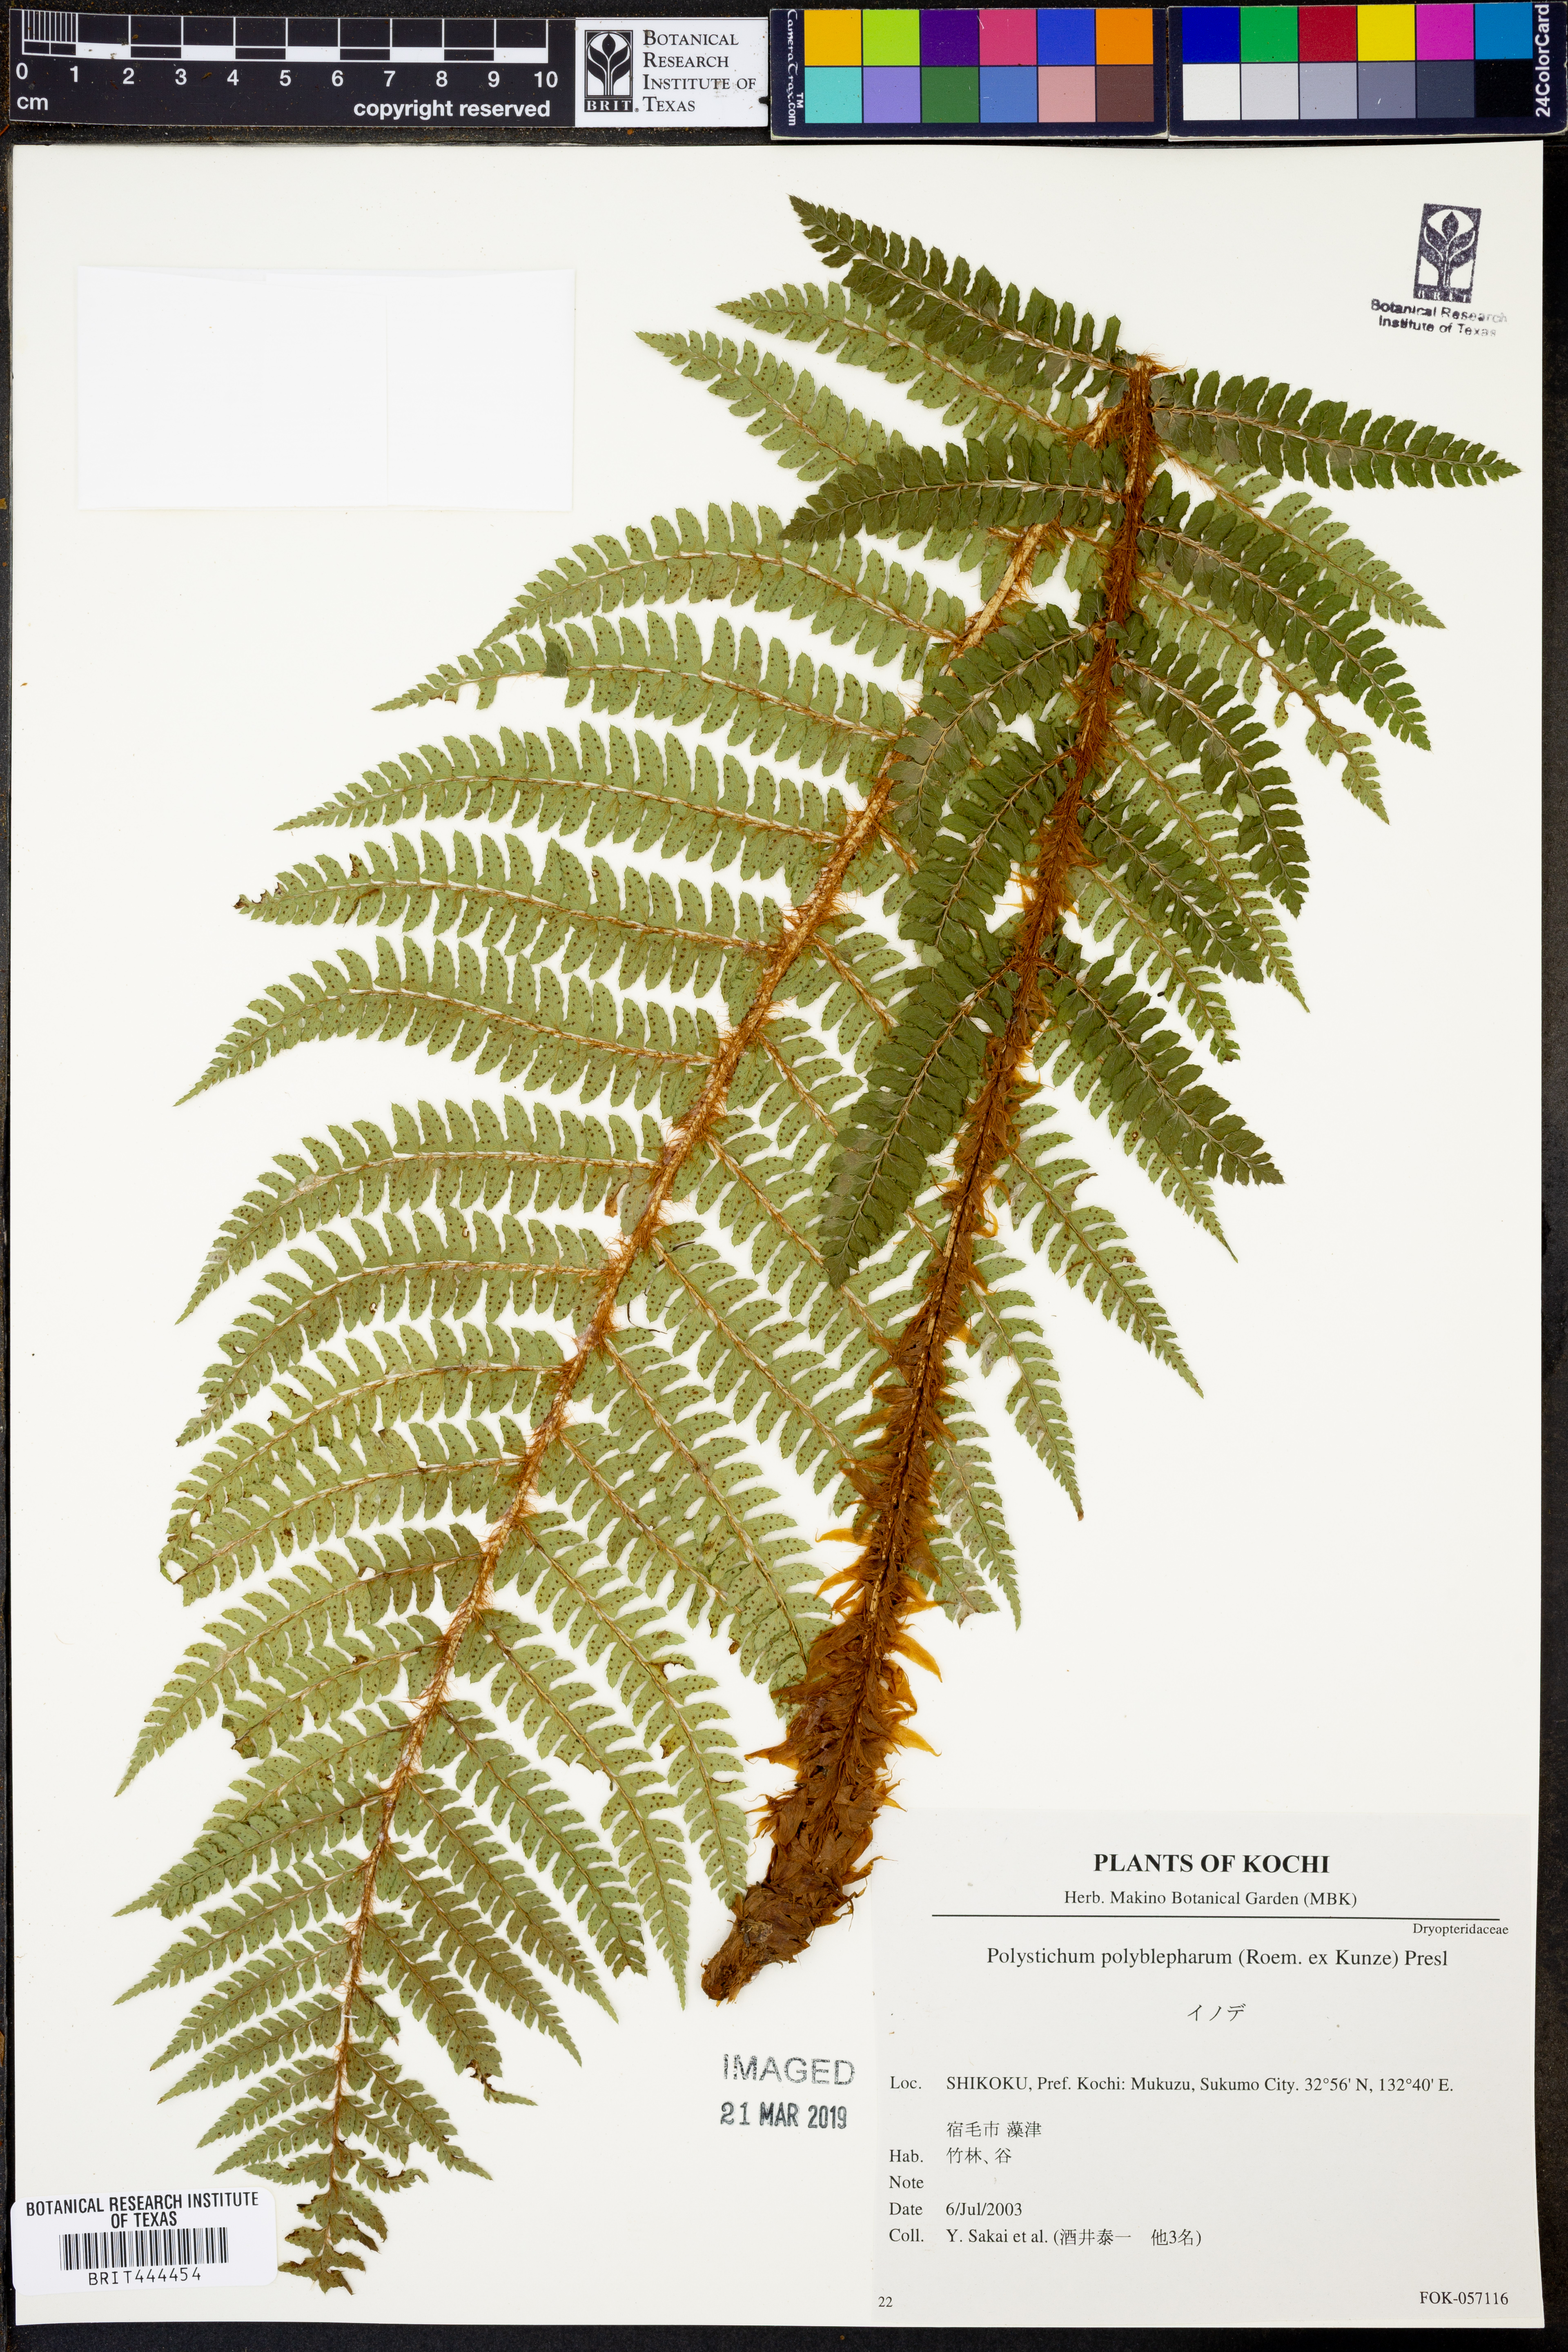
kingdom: Plantae
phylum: Tracheophyta
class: Polypodiopsida
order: Polypodiales
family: Dryopteridaceae
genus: Polystichum
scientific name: Polystichum polyblepharon
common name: Korean tasselfern
